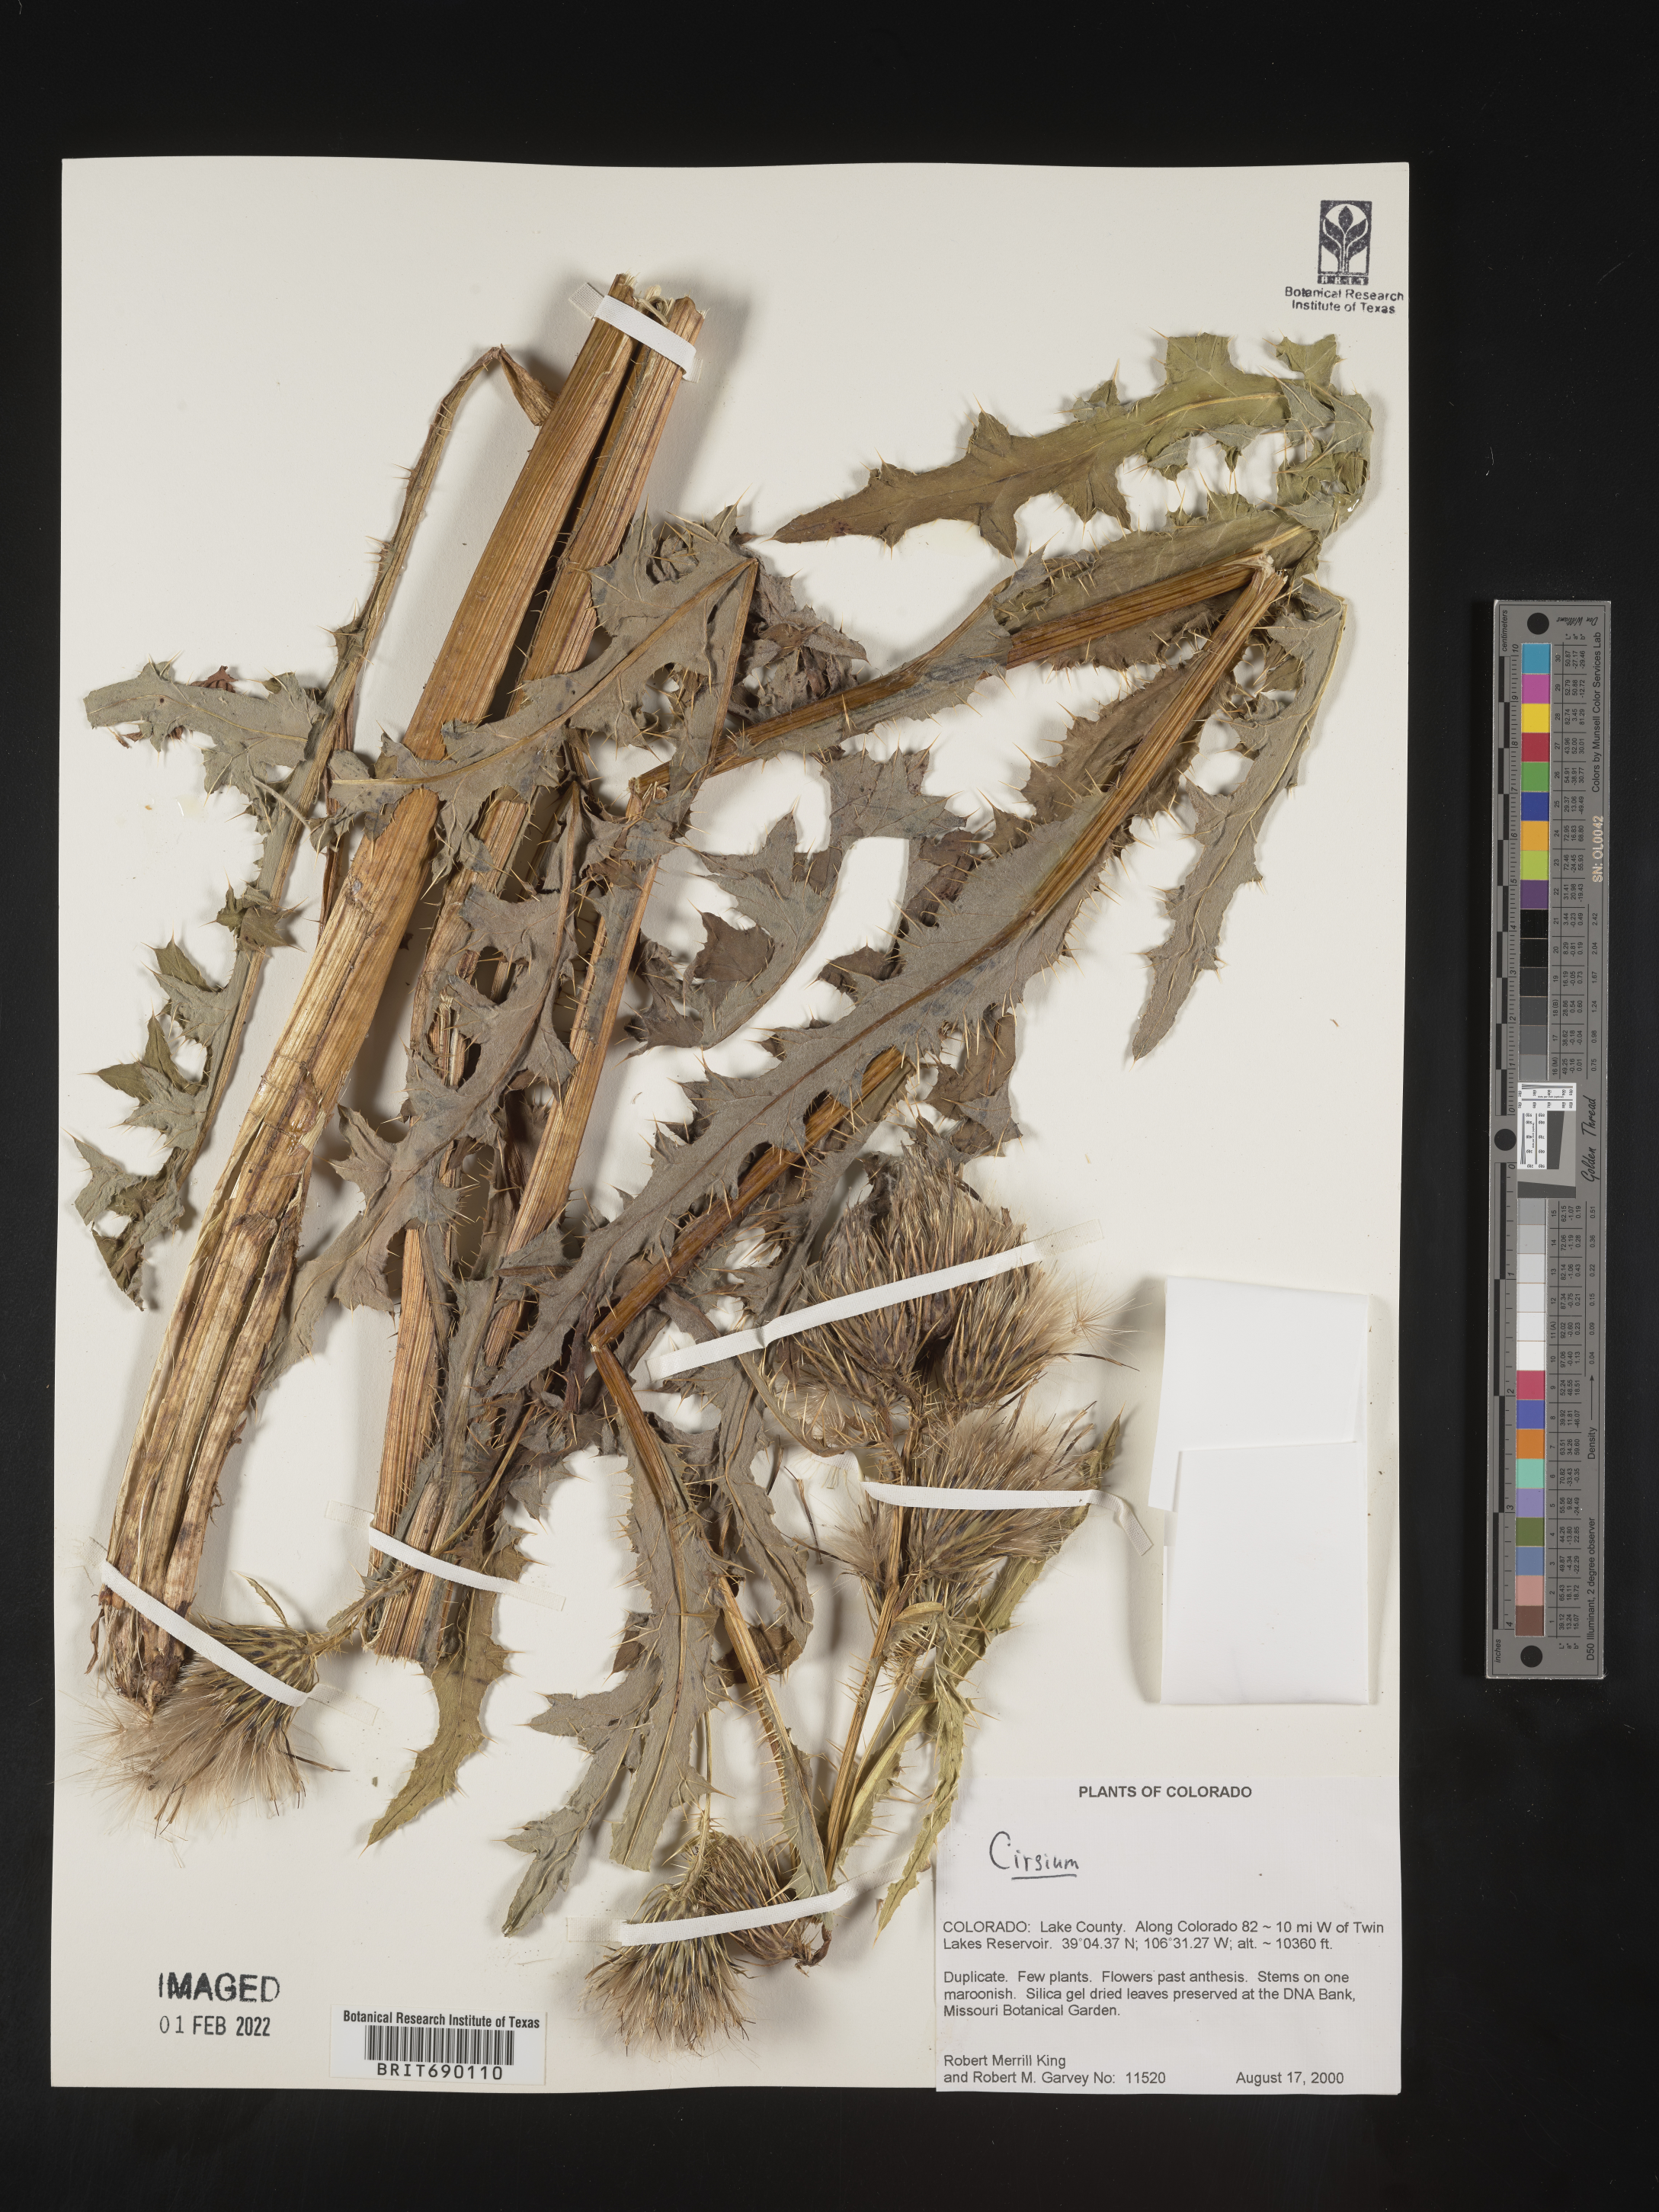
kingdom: Plantae
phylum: Tracheophyta
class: Magnoliopsida
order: Asterales
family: Asteraceae
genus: Cirsium
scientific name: Cirsium
